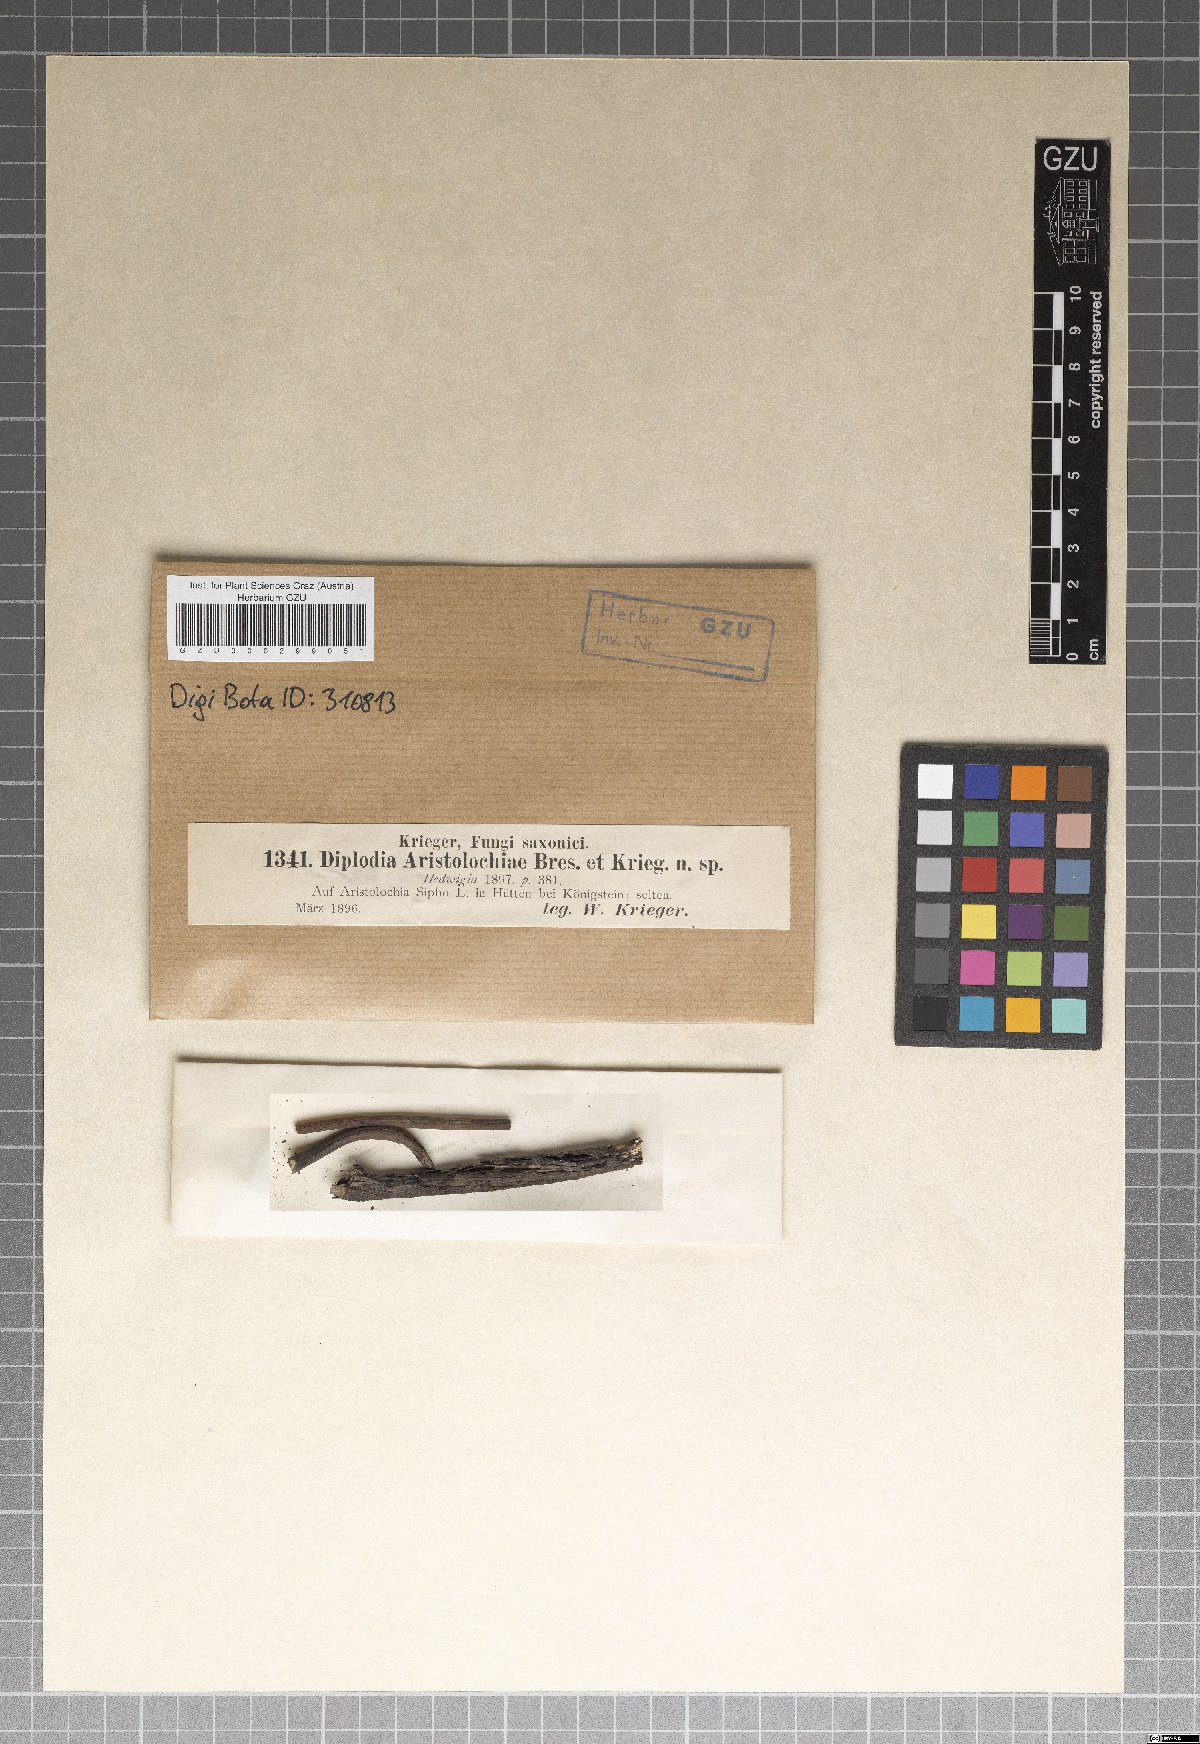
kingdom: Fungi
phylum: Ascomycota
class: Dothideomycetes
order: Botryosphaeriales
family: Botryosphaeriaceae
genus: Diplodia
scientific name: Diplodia
